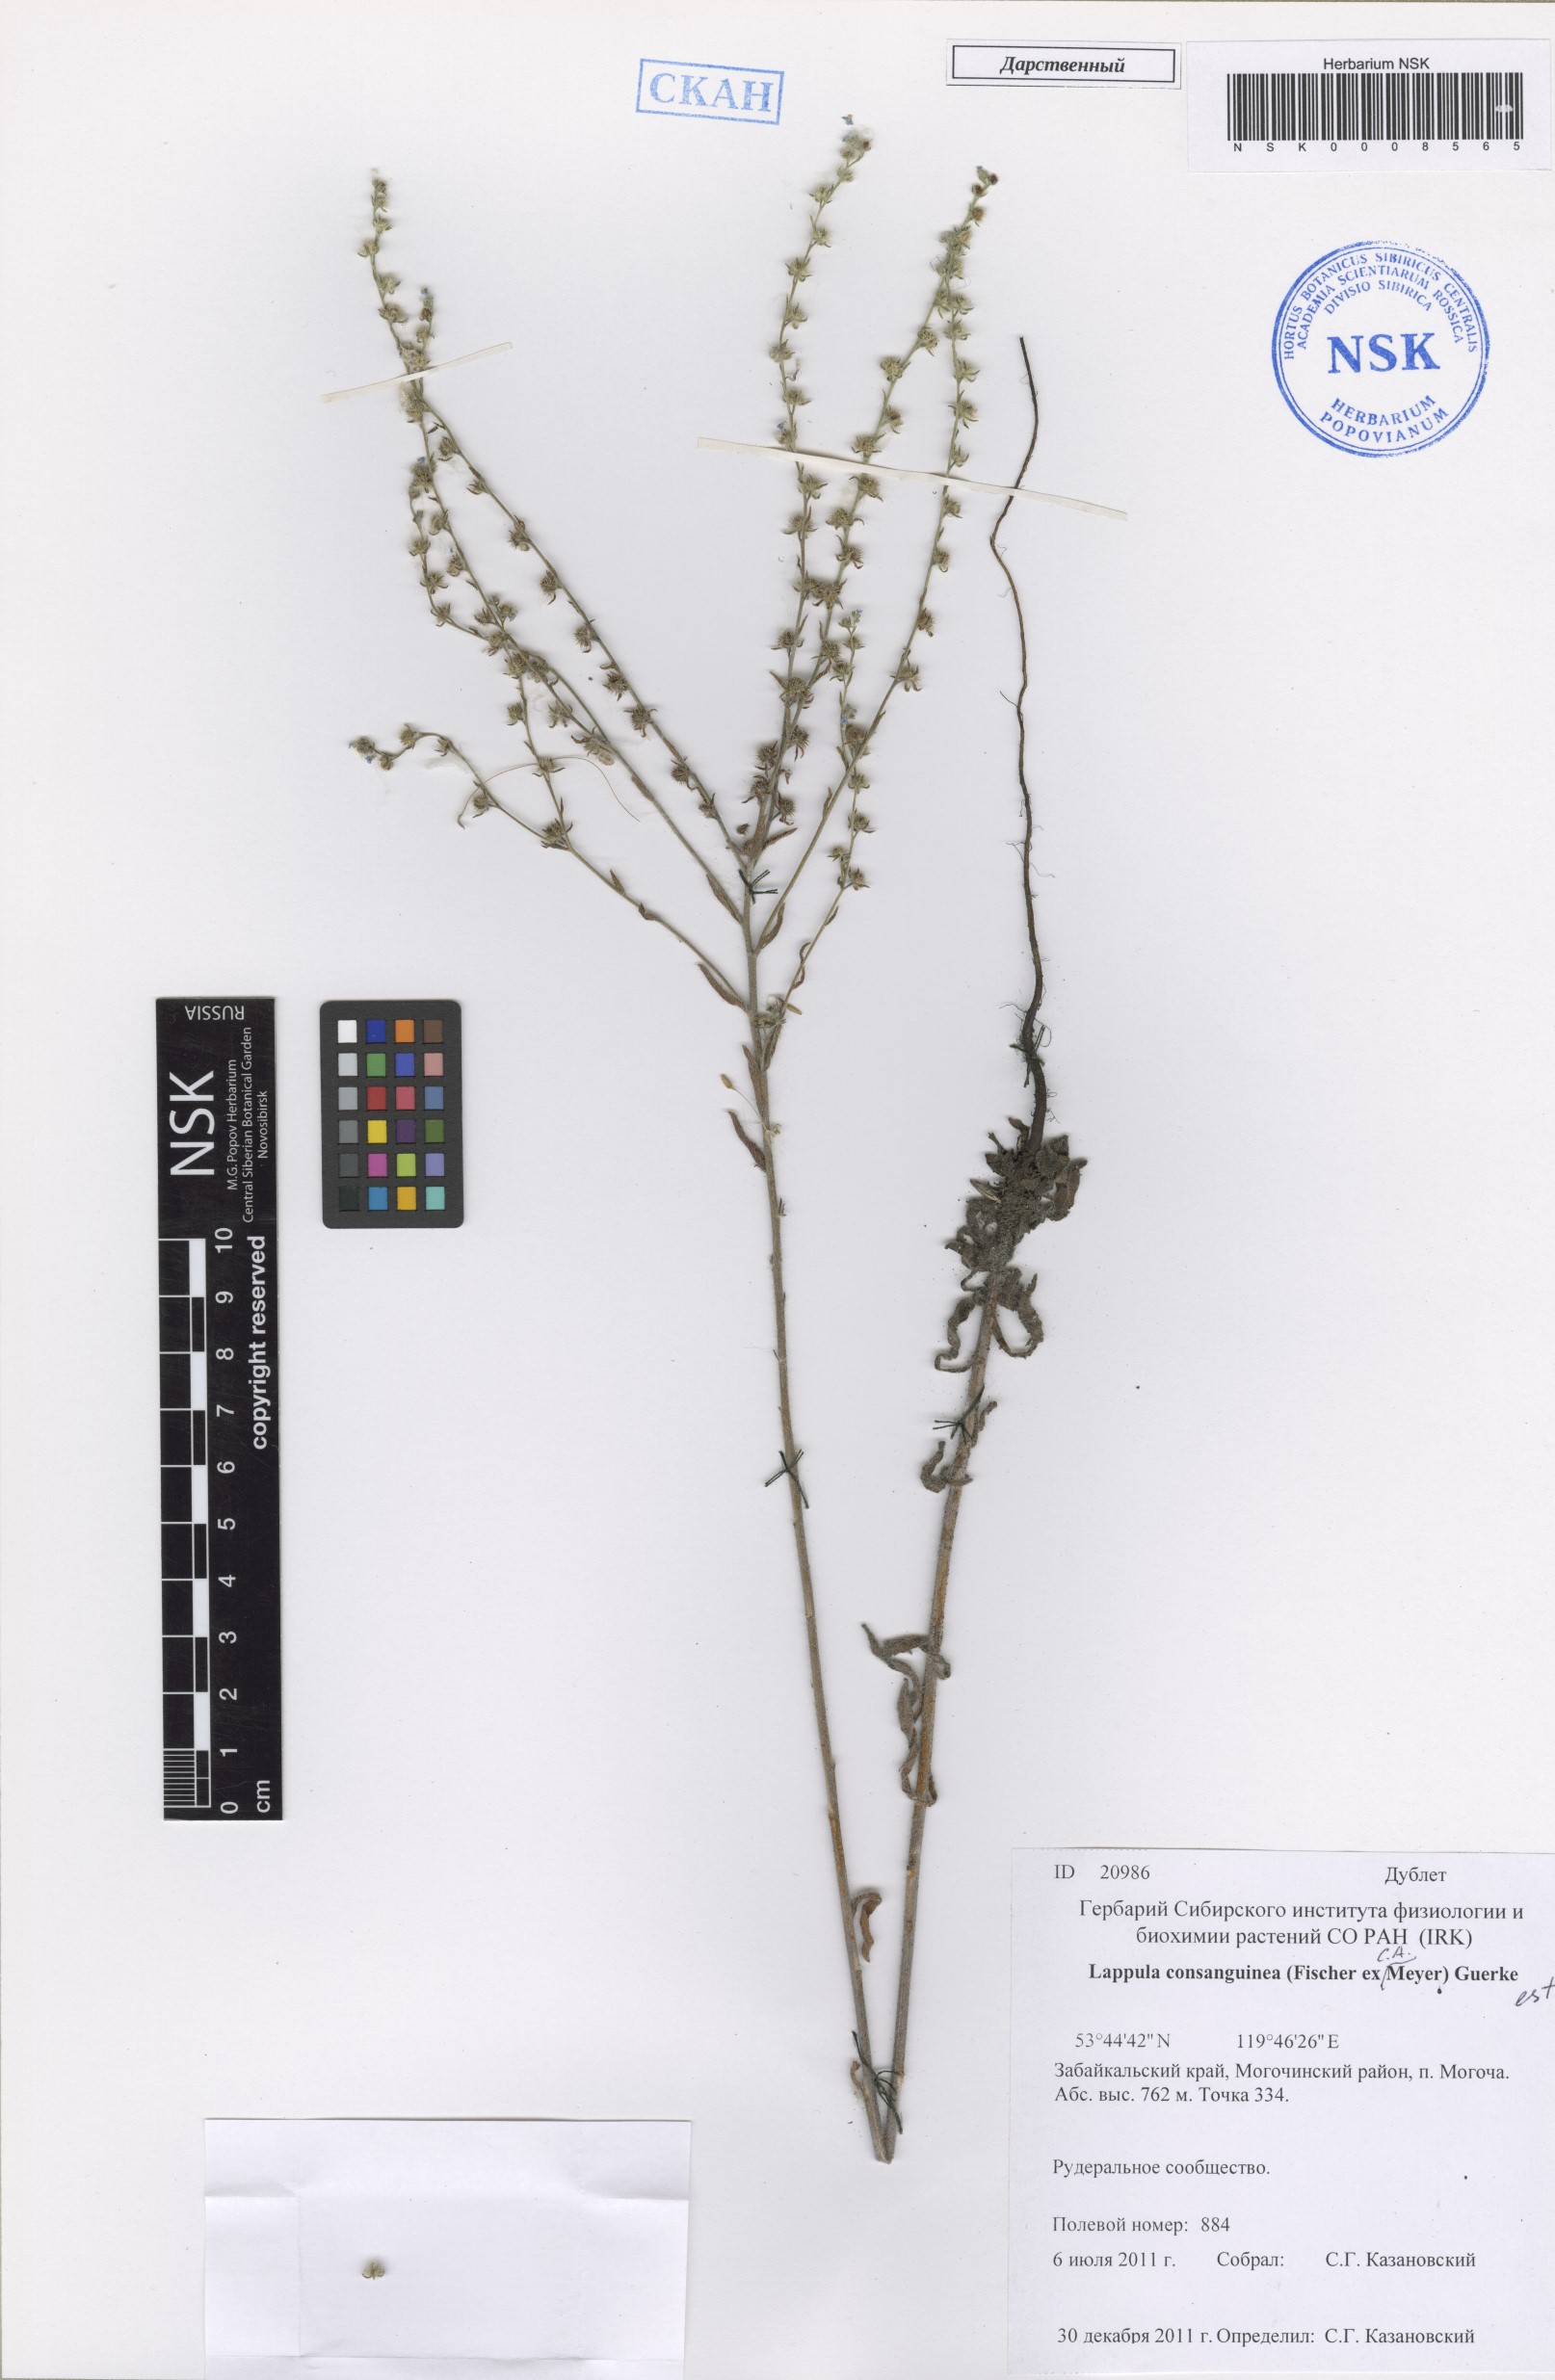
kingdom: Plantae
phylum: Tracheophyta
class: Magnoliopsida
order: Boraginales
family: Boraginaceae
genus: Lappula
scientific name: Lappula squarrosa
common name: European stickseed
